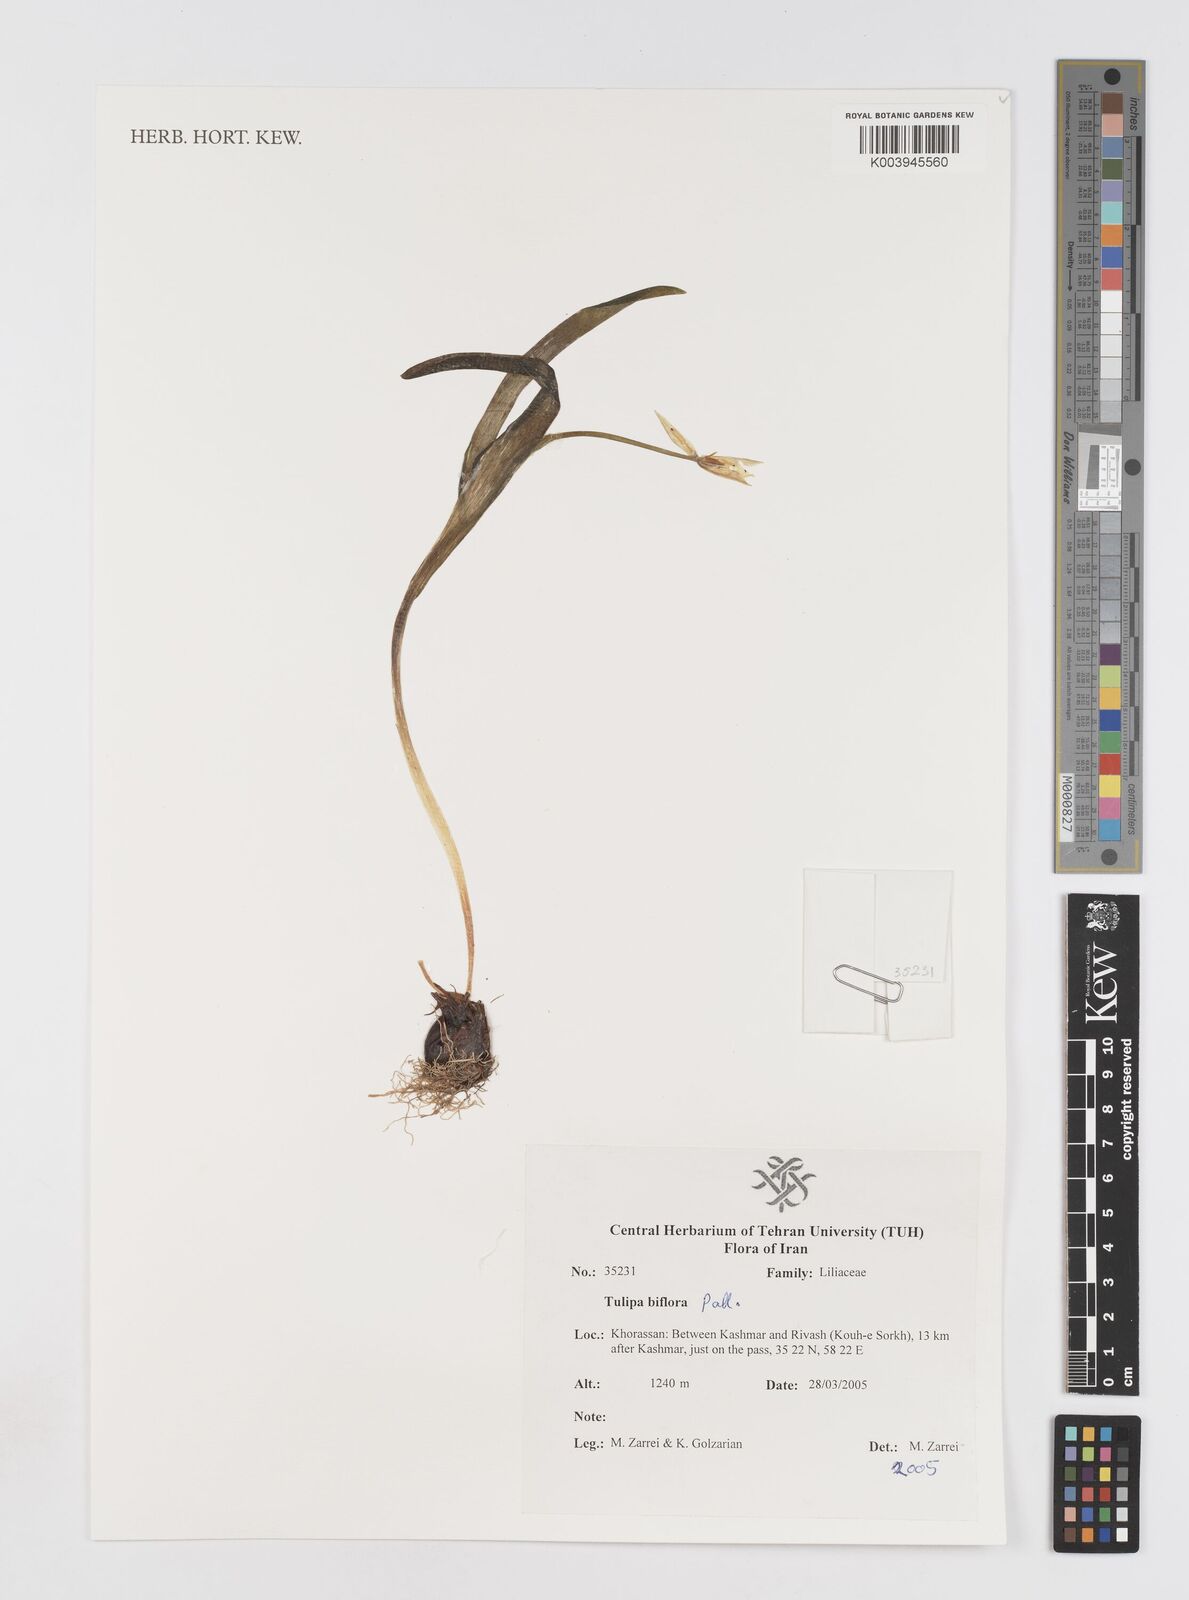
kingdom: Plantae
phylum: Tracheophyta
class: Liliopsida
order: Liliales
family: Liliaceae
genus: Tulipa
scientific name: Tulipa biflora
